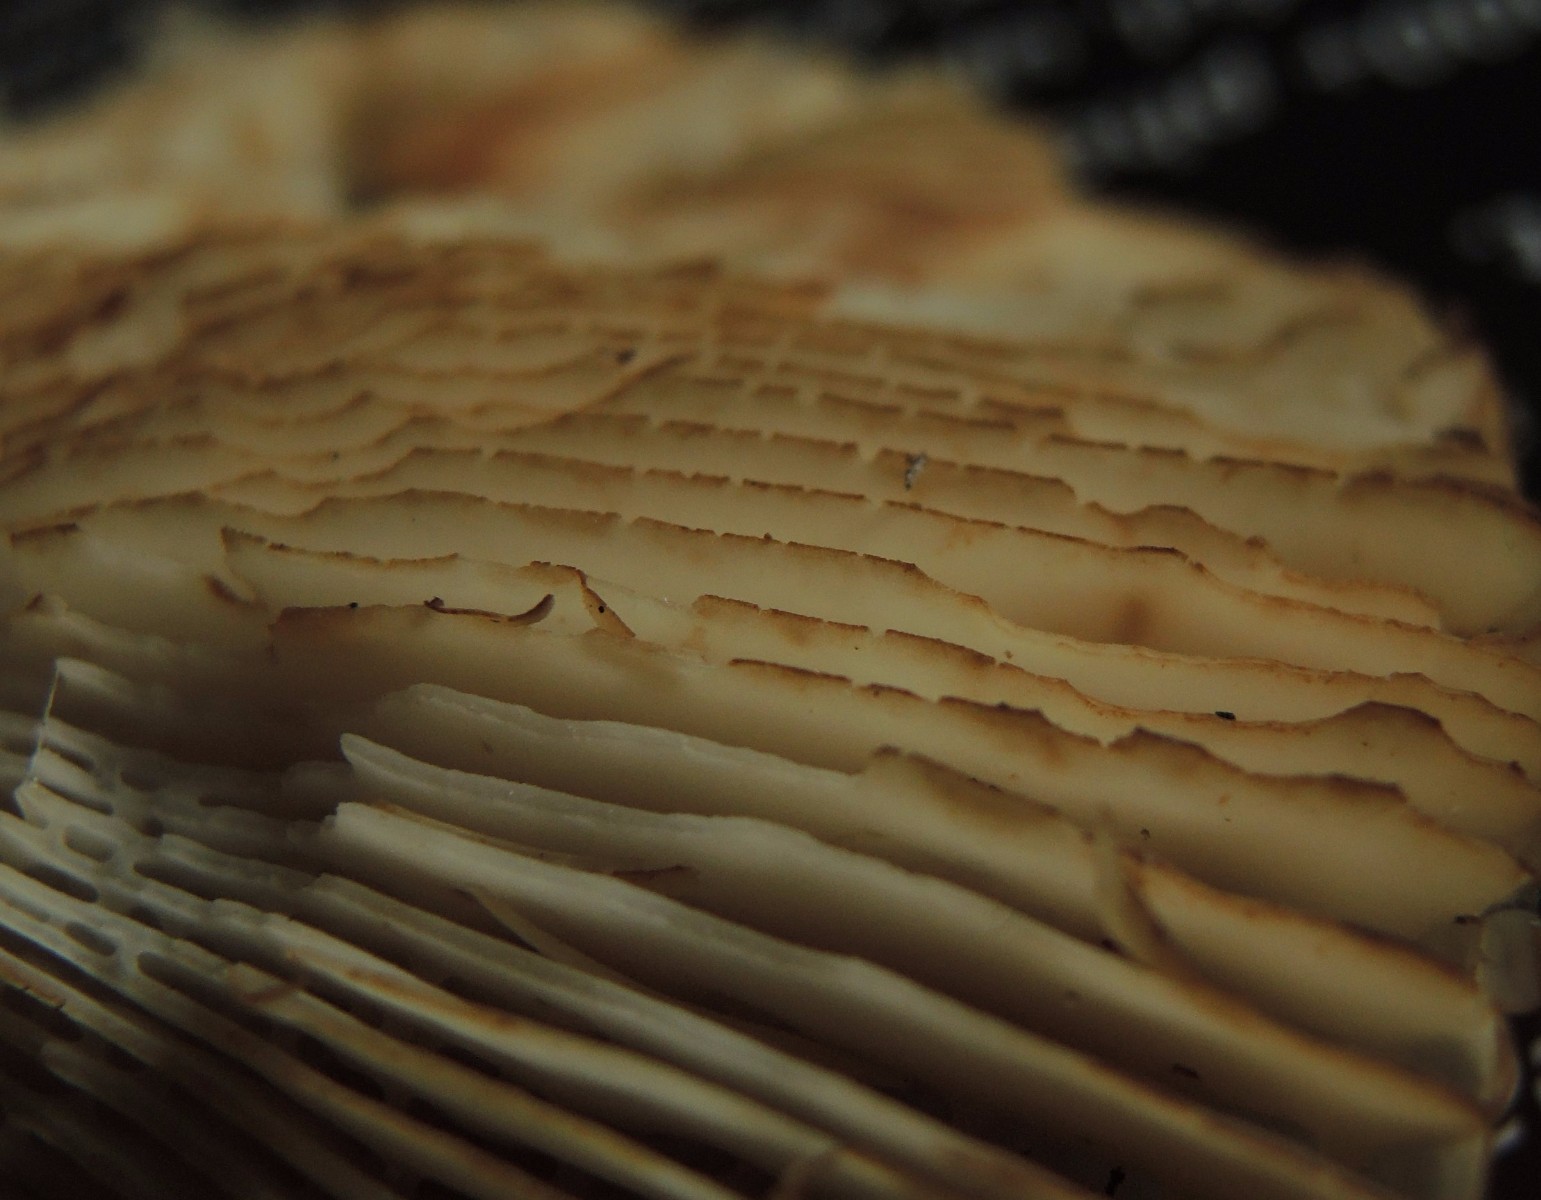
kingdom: Fungi
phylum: Basidiomycota
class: Agaricomycetes
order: Russulales
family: Russulaceae
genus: Russula
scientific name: Russula grata
